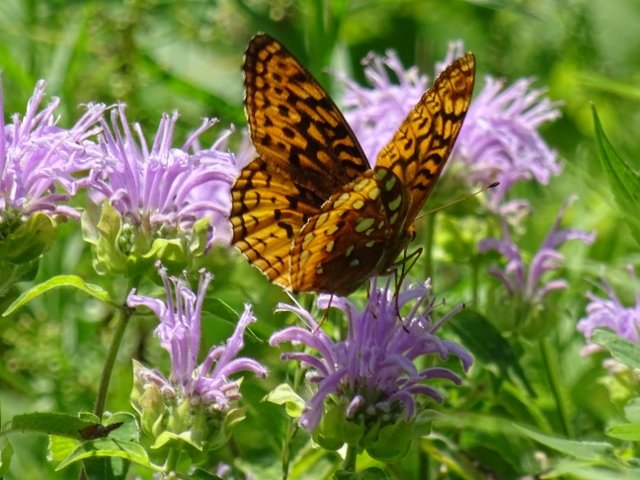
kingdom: Animalia
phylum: Arthropoda
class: Insecta
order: Lepidoptera
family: Nymphalidae
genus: Speyeria
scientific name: Speyeria cybele
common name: Great Spangled Fritillary
